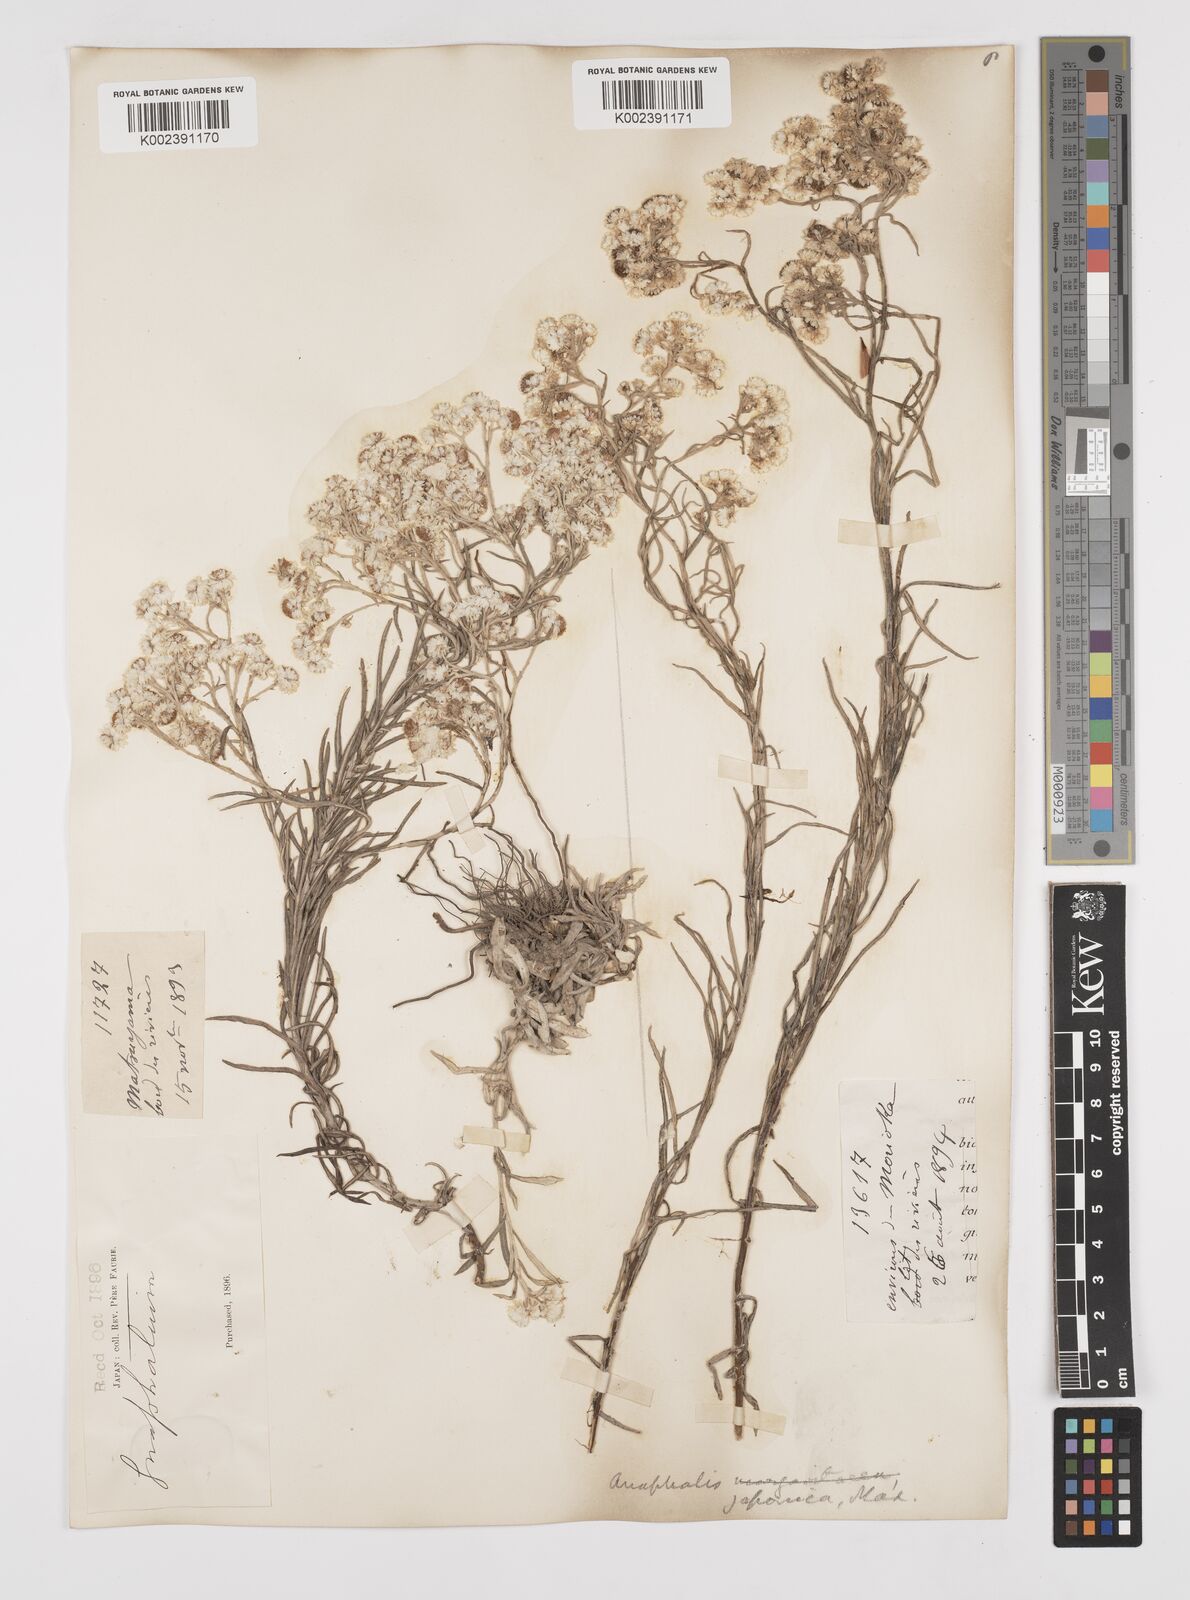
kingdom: Plantae
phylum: Tracheophyta
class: Magnoliopsida
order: Asterales
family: Asteraceae
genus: Anaphalis
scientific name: Anaphalis margaritacea
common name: Pearly everlasting
